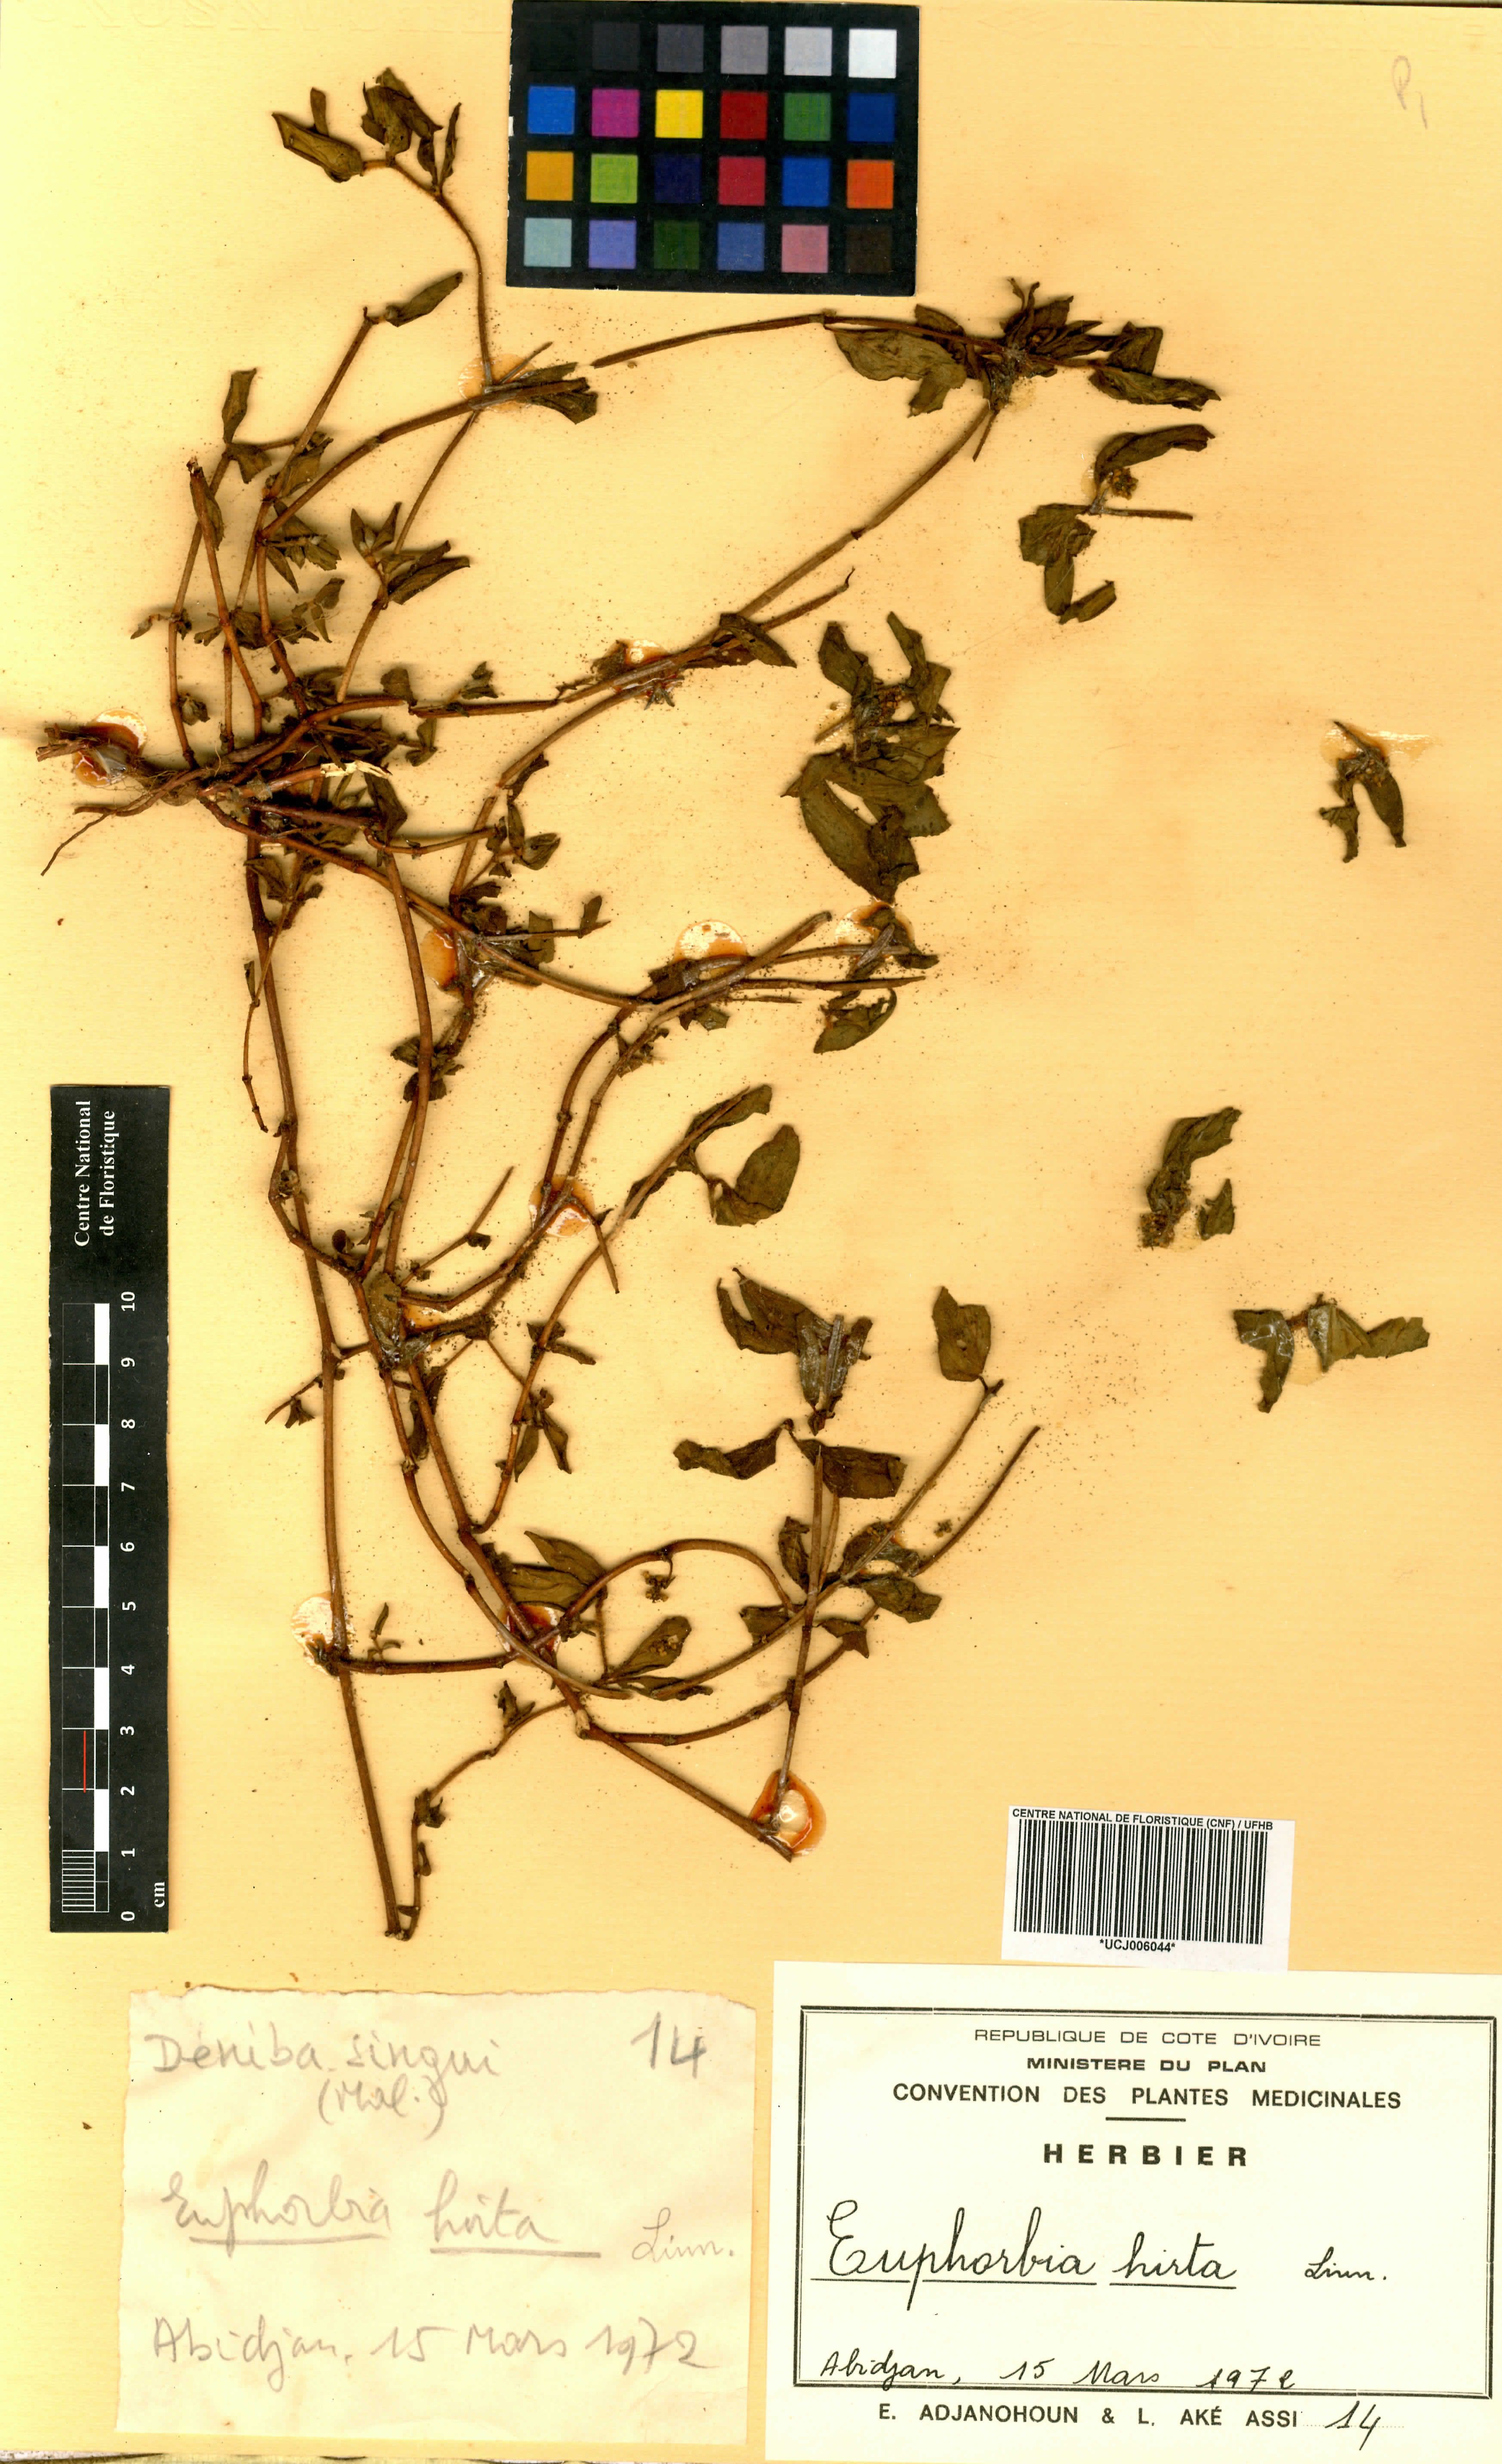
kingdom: Plantae
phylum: Tracheophyta
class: Magnoliopsida
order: Malpighiales
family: Euphorbiaceae
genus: Euphorbia
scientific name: Euphorbia hirta
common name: Pillpod sandmat
